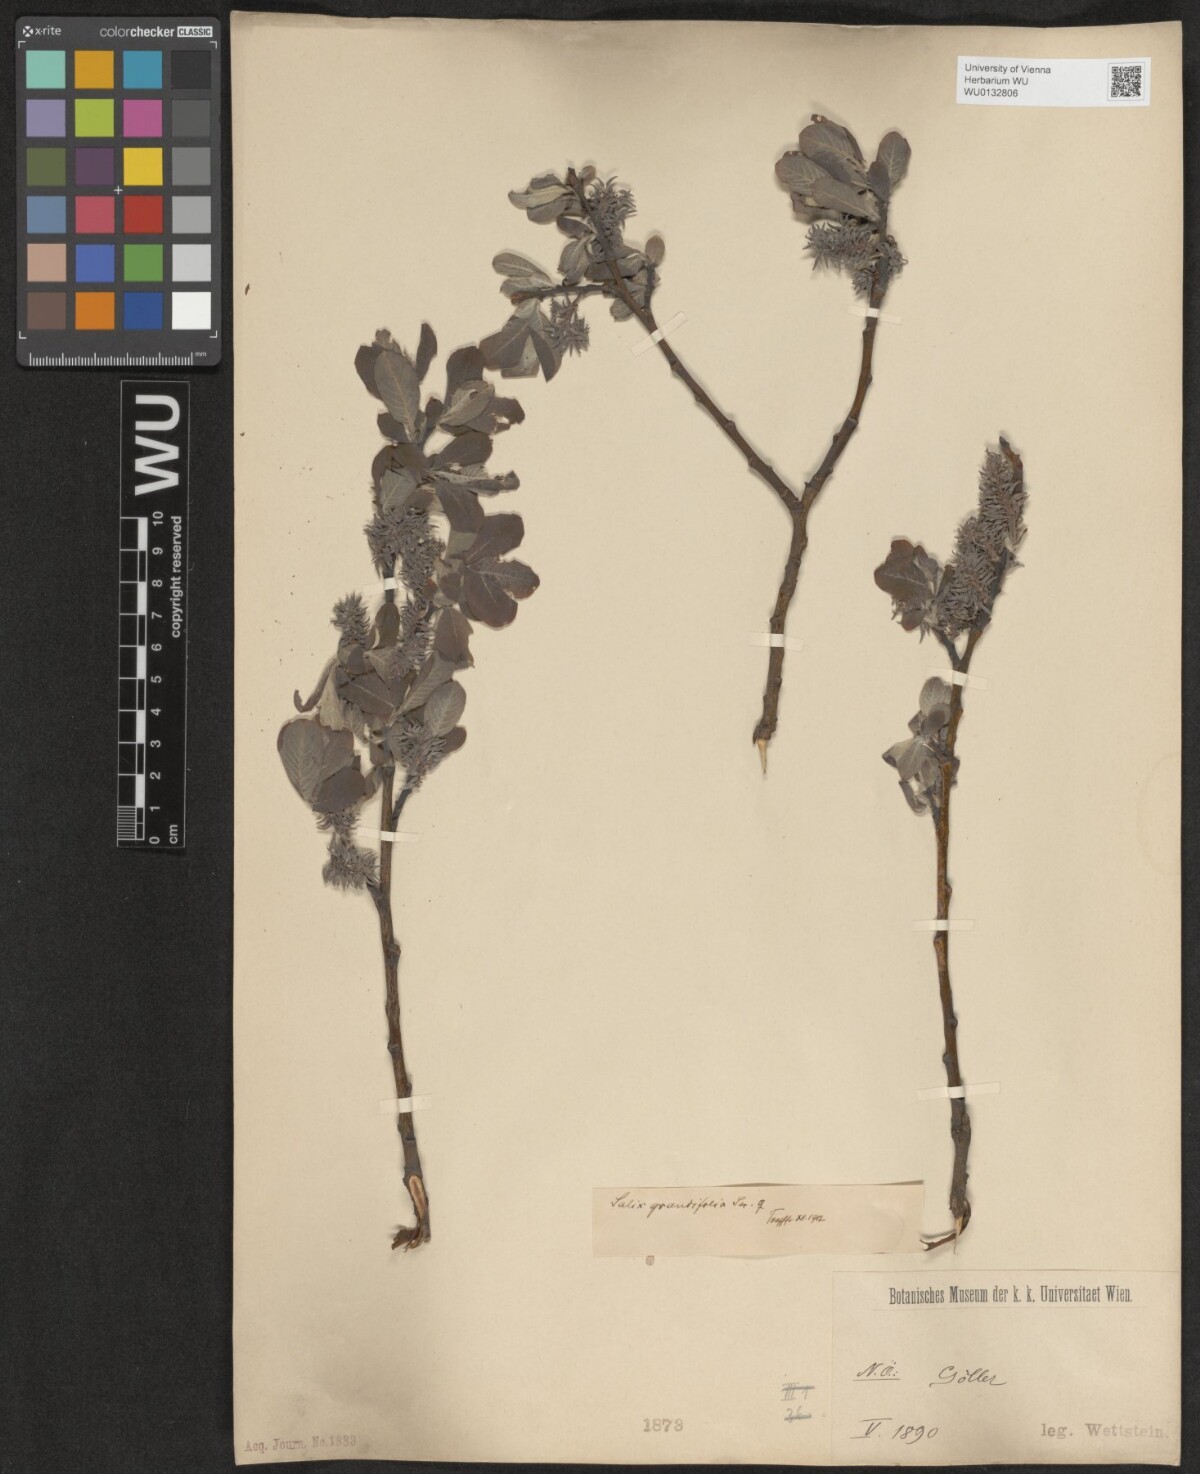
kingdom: Plantae
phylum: Tracheophyta
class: Magnoliopsida
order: Malpighiales
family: Salicaceae
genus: Salix
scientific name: Salix appendiculata
